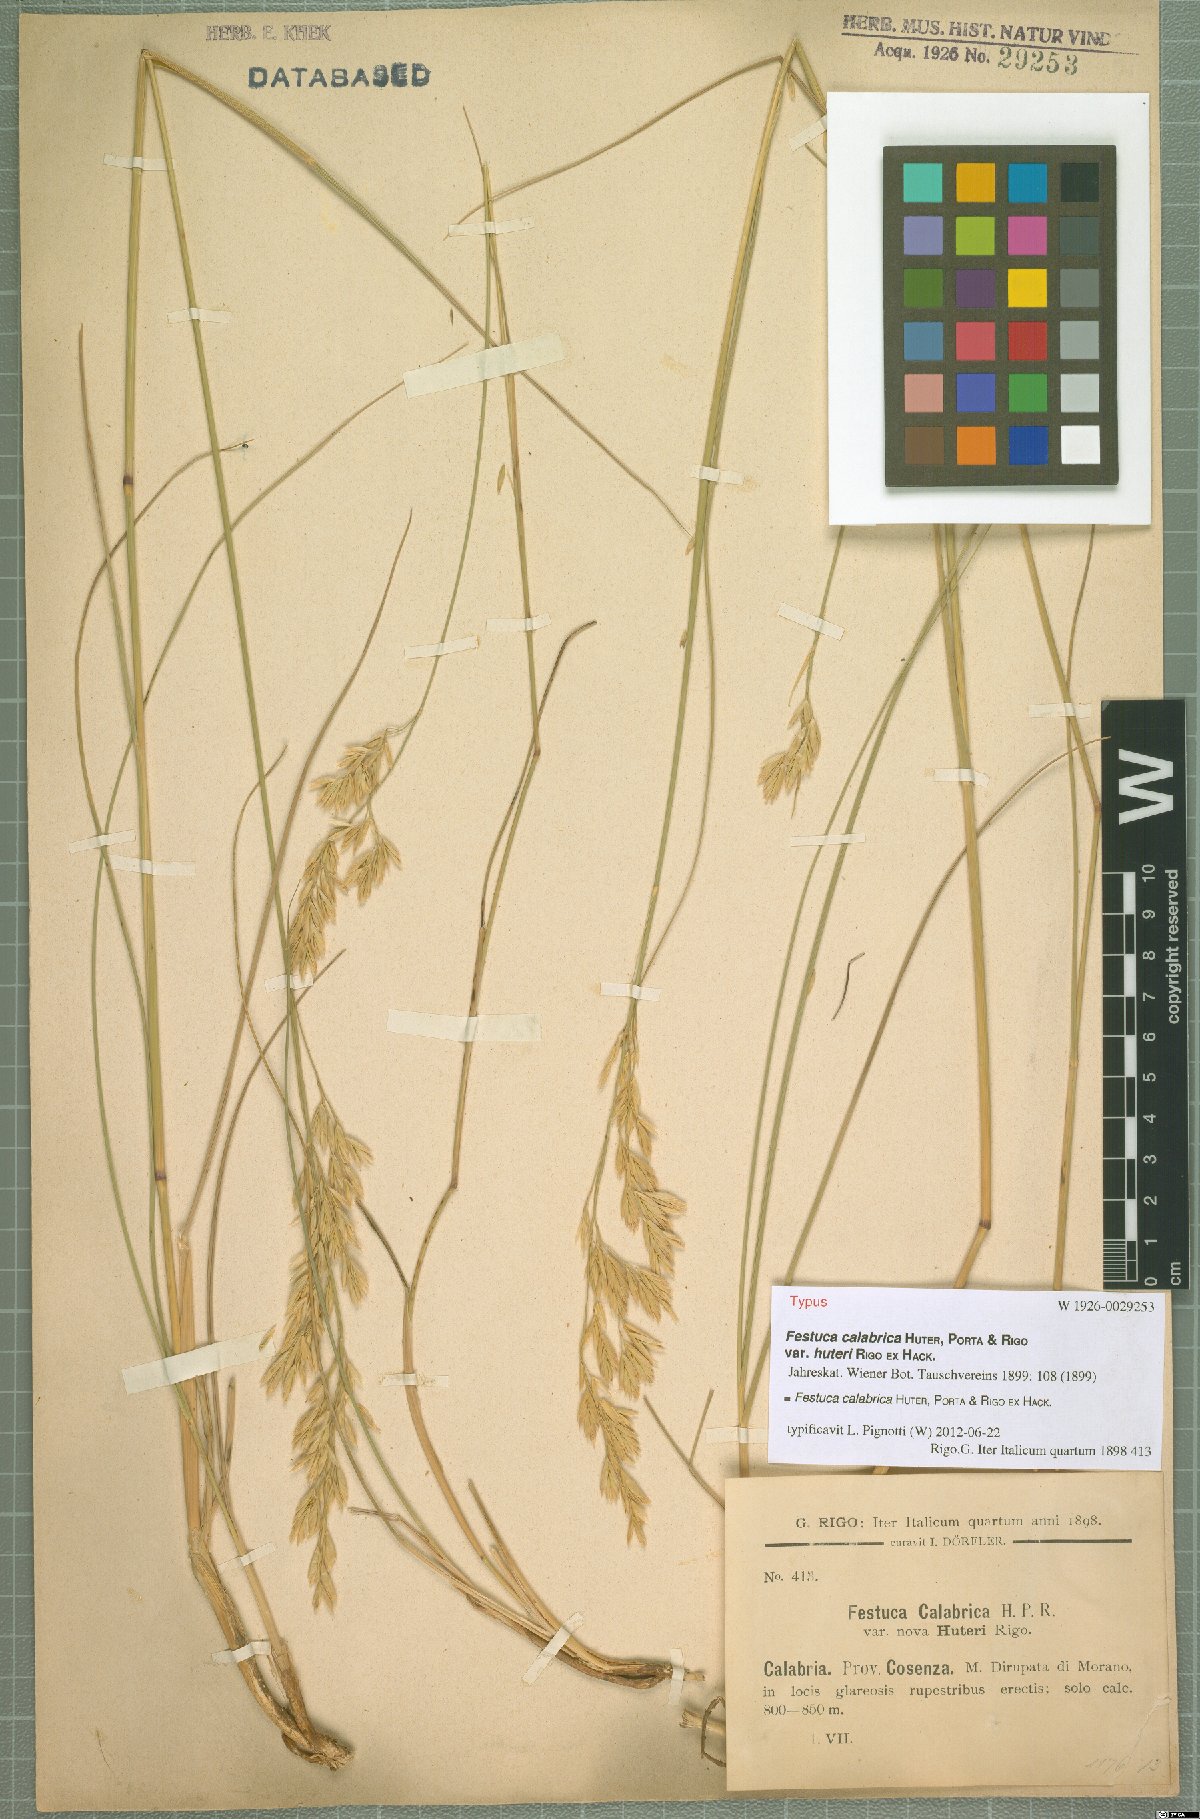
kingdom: Plantae
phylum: Tracheophyta
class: Liliopsida
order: Poales
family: Poaceae
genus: Festuca
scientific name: Festuca calabrica
